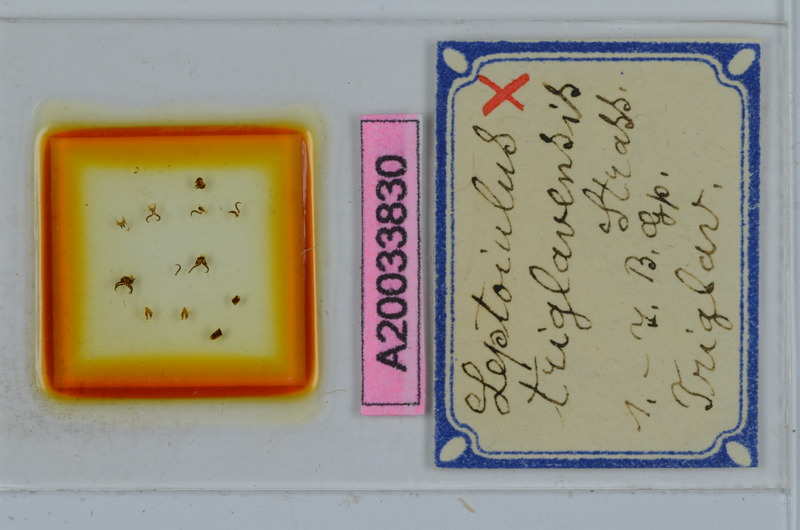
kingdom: Animalia
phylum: Arthropoda
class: Diplopoda
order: Julida
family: Julidae
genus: Leptoiulus
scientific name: Leptoiulus triglavensis
